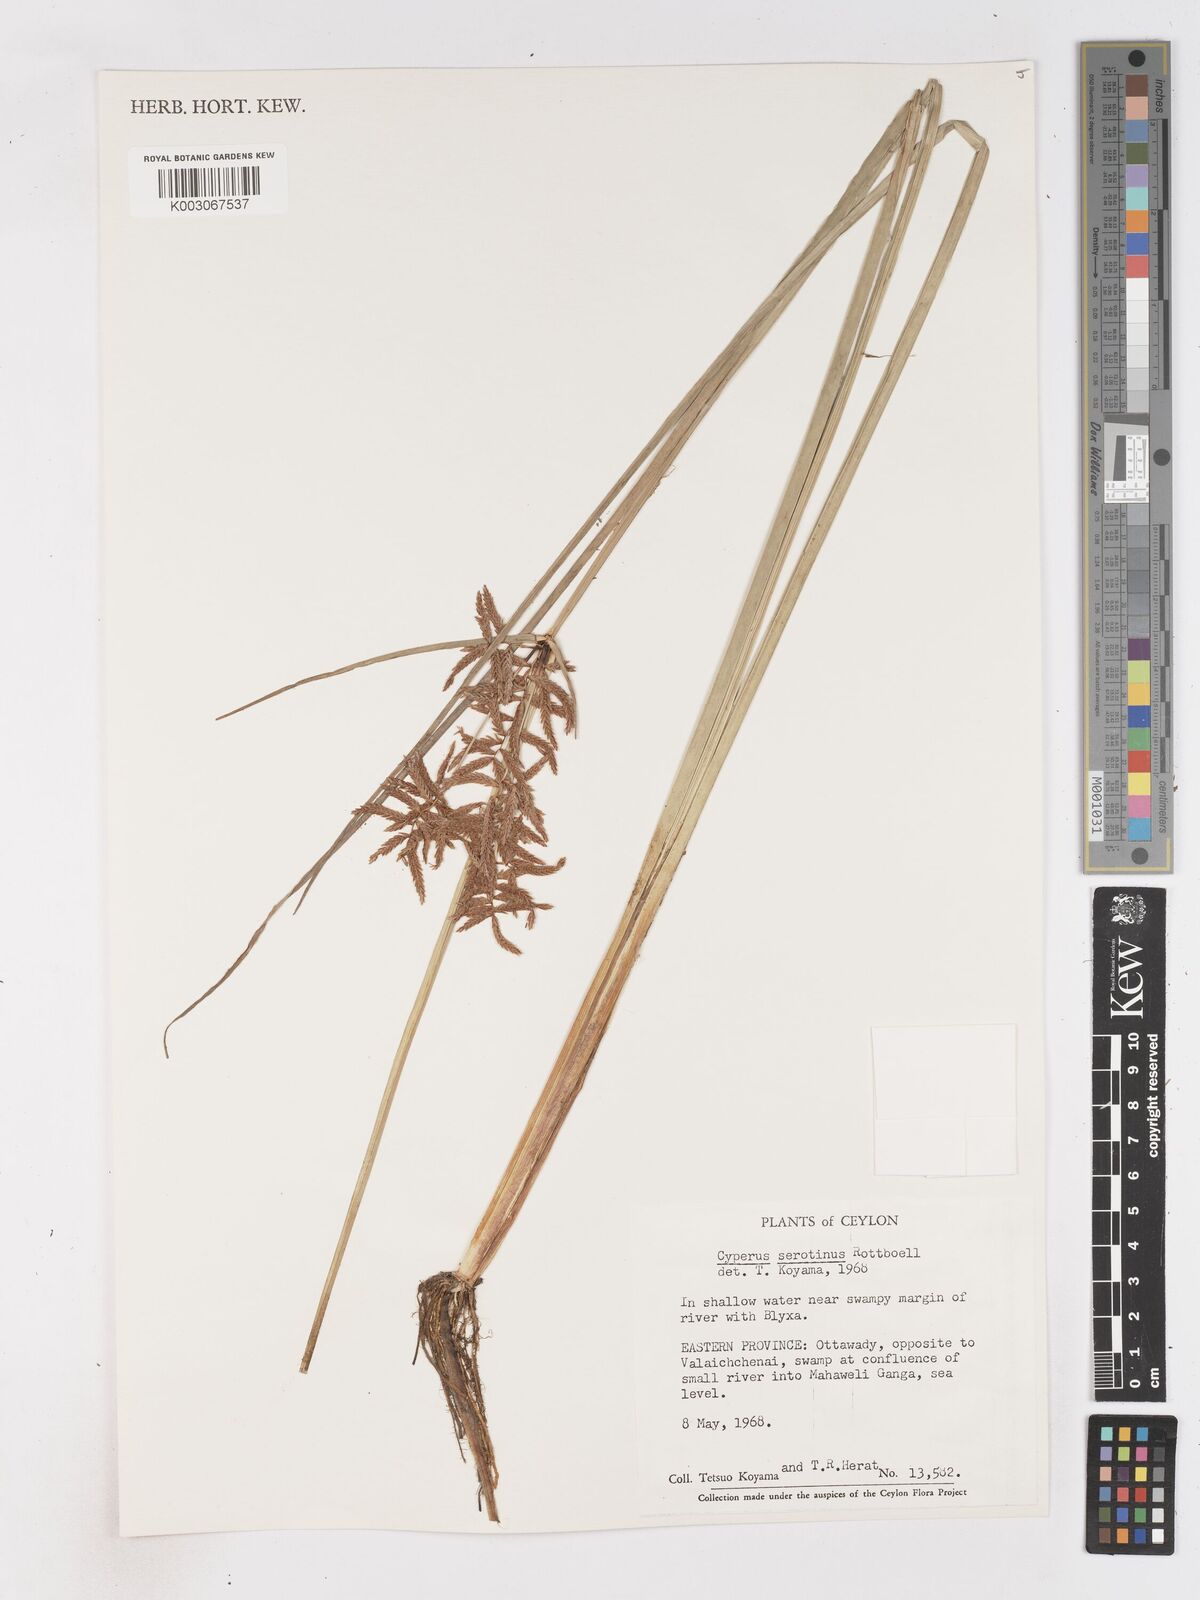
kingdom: Plantae
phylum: Tracheophyta
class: Liliopsida
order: Poales
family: Cyperaceae
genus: Cyperus
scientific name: Cyperus serotinus
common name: Tidalmarsh flatsedge
